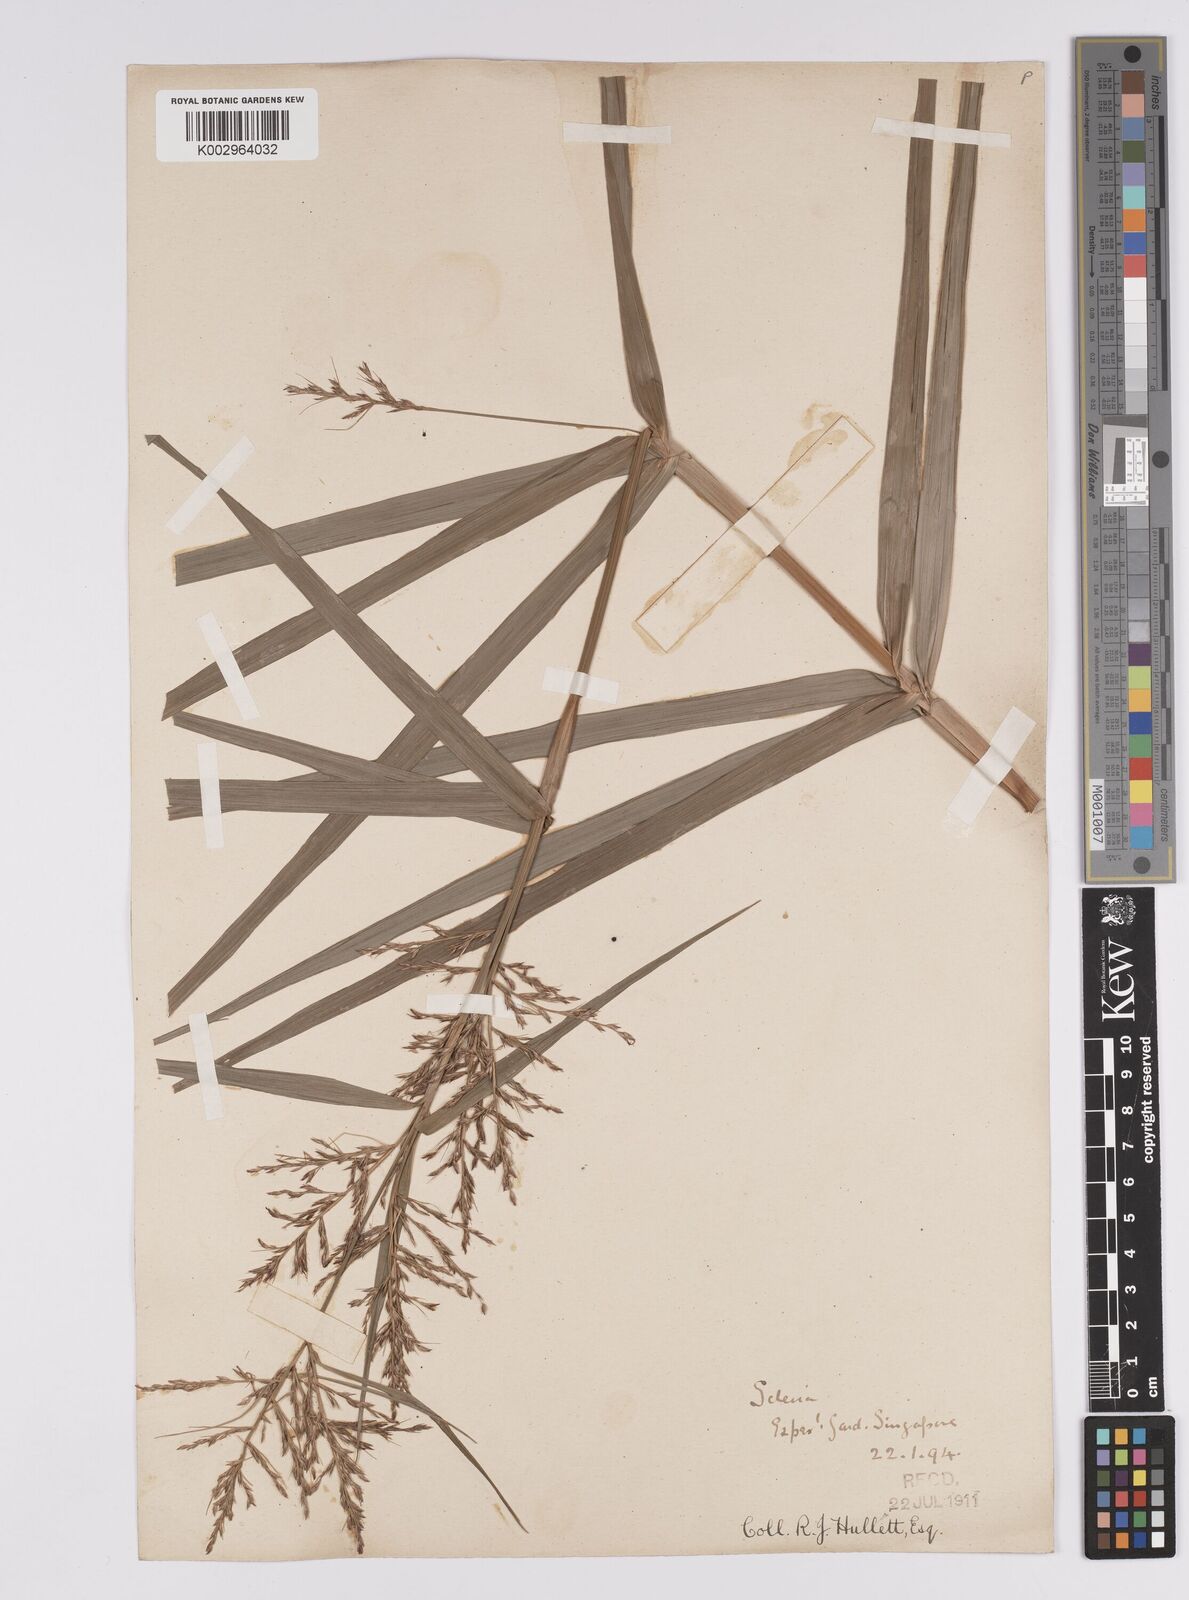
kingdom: Plantae
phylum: Tracheophyta
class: Liliopsida
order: Poales
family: Cyperaceae
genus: Scleria
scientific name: Scleria sumatrensis
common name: Sumatran scleria
